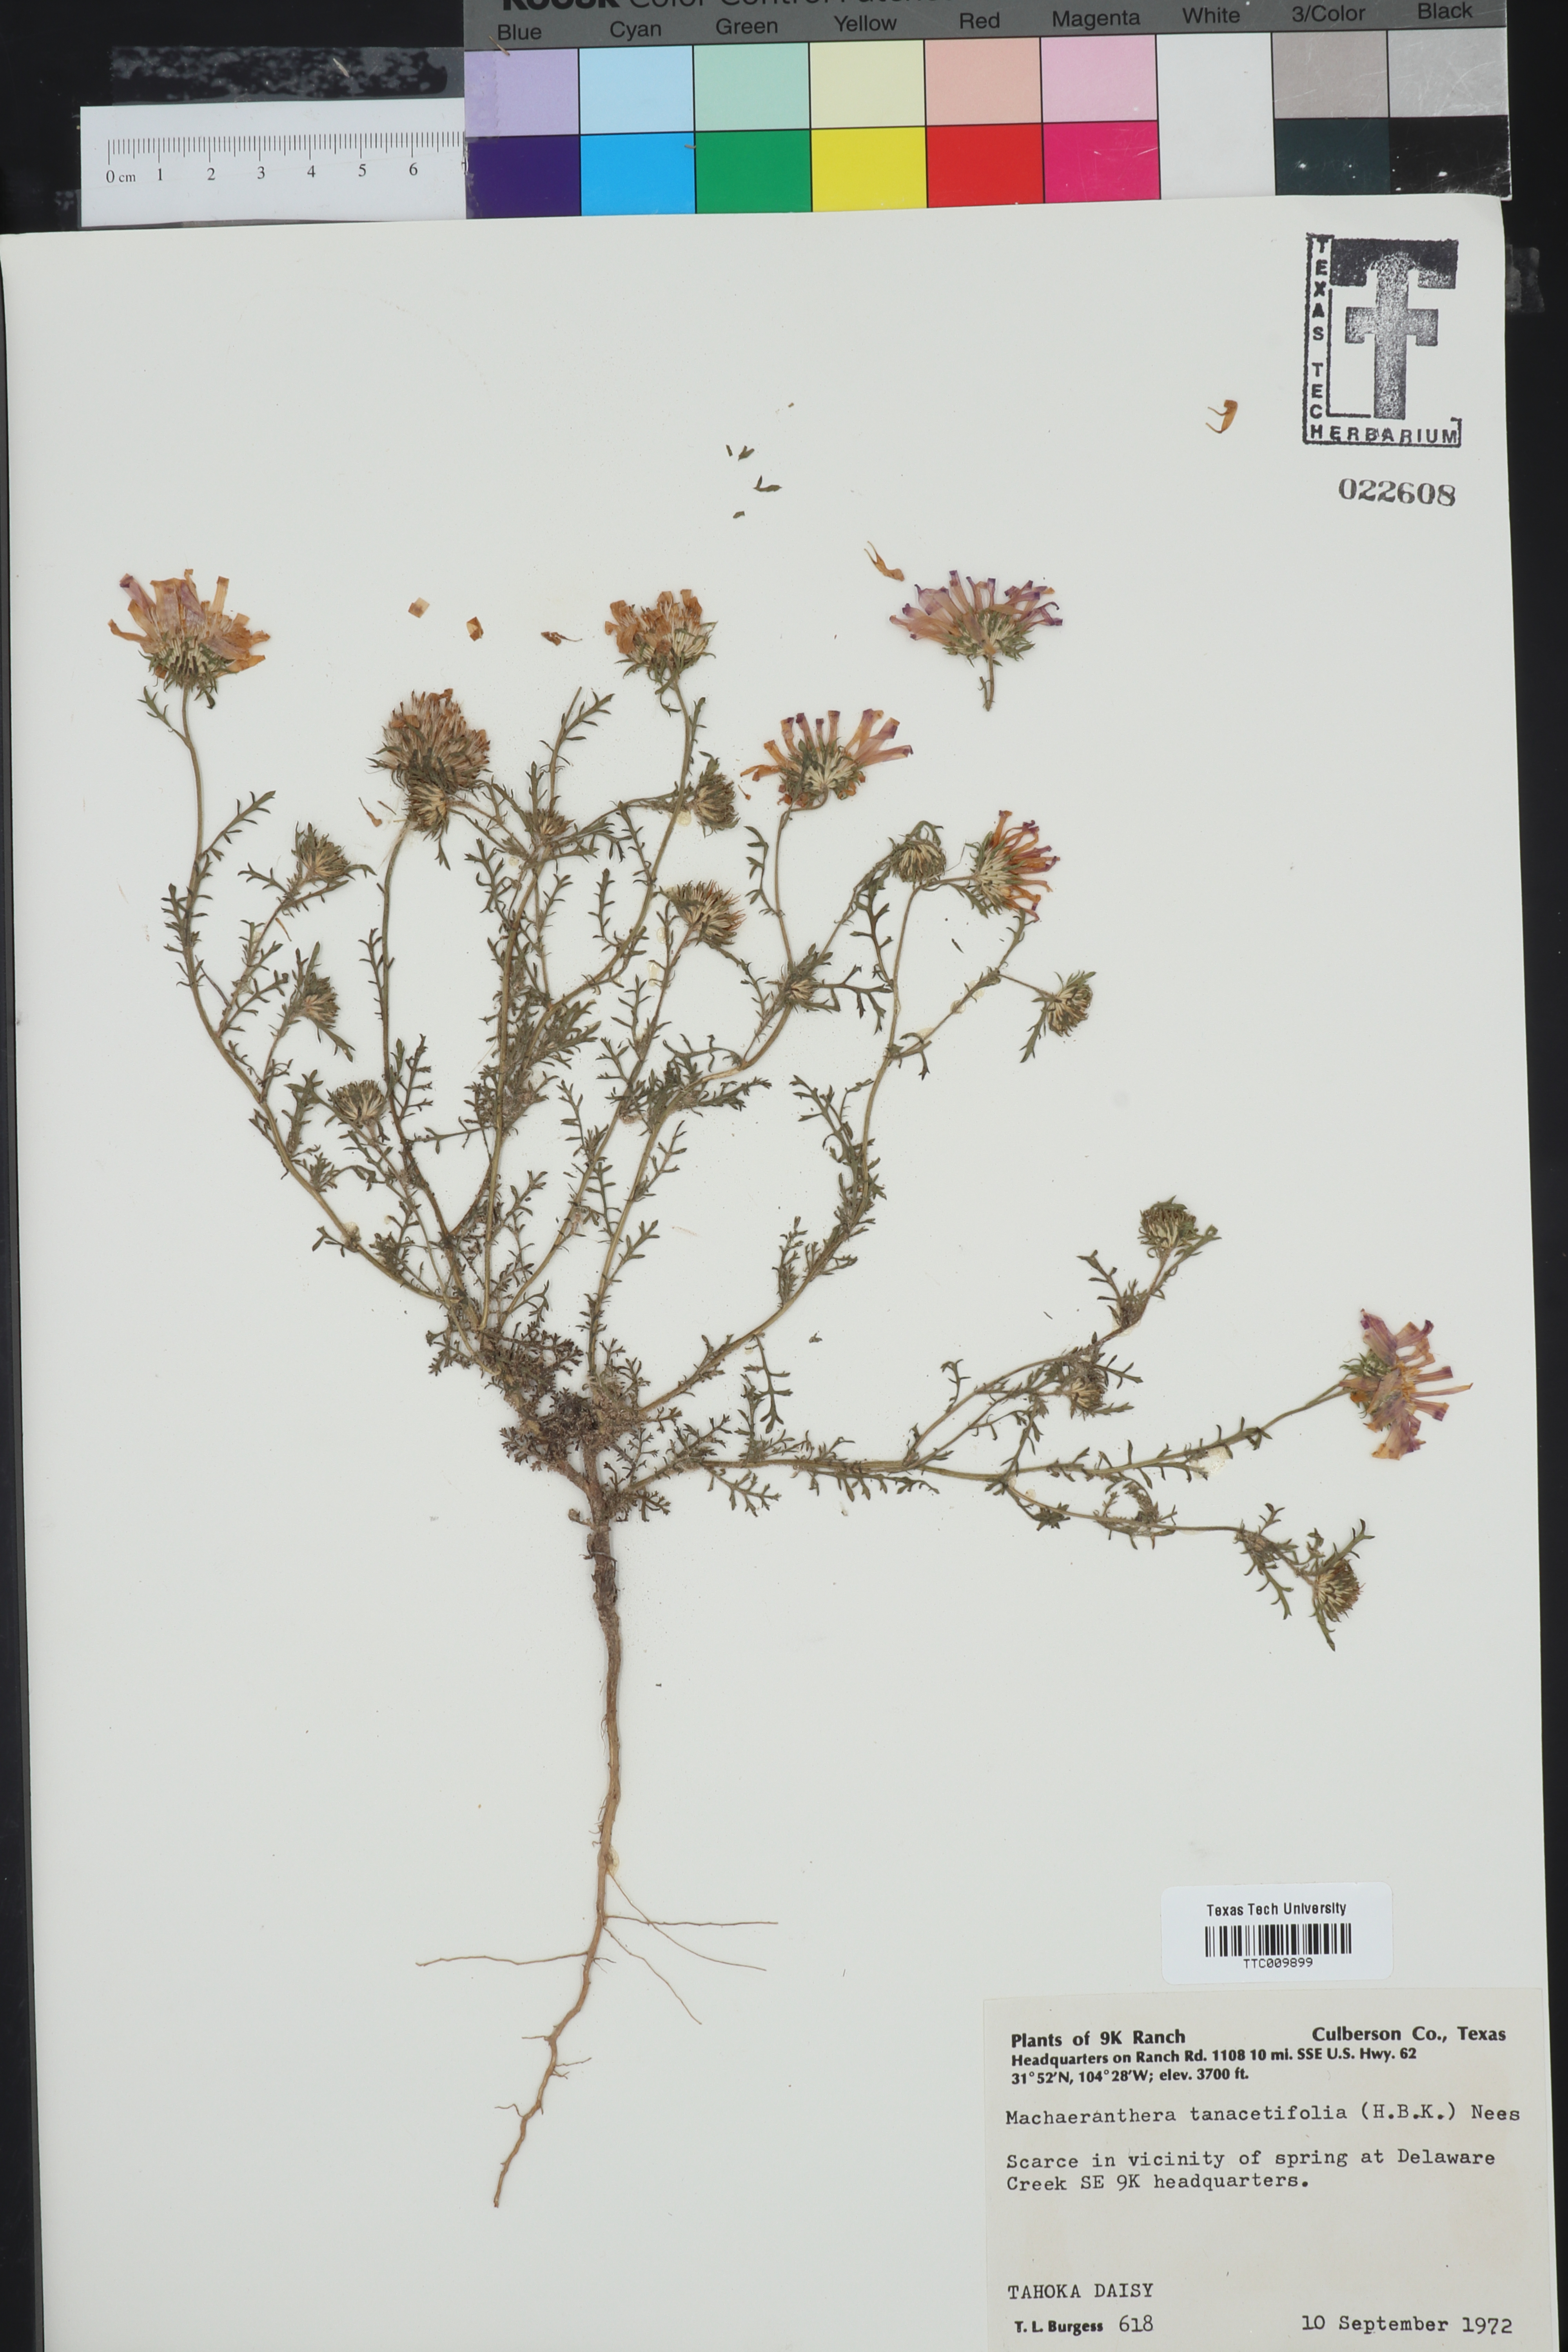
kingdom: Plantae
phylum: Tracheophyta
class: Magnoliopsida
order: Asterales
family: Asteraceae
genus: Machaeranthera
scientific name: Machaeranthera tanacetifolia
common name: Tansy-aster
